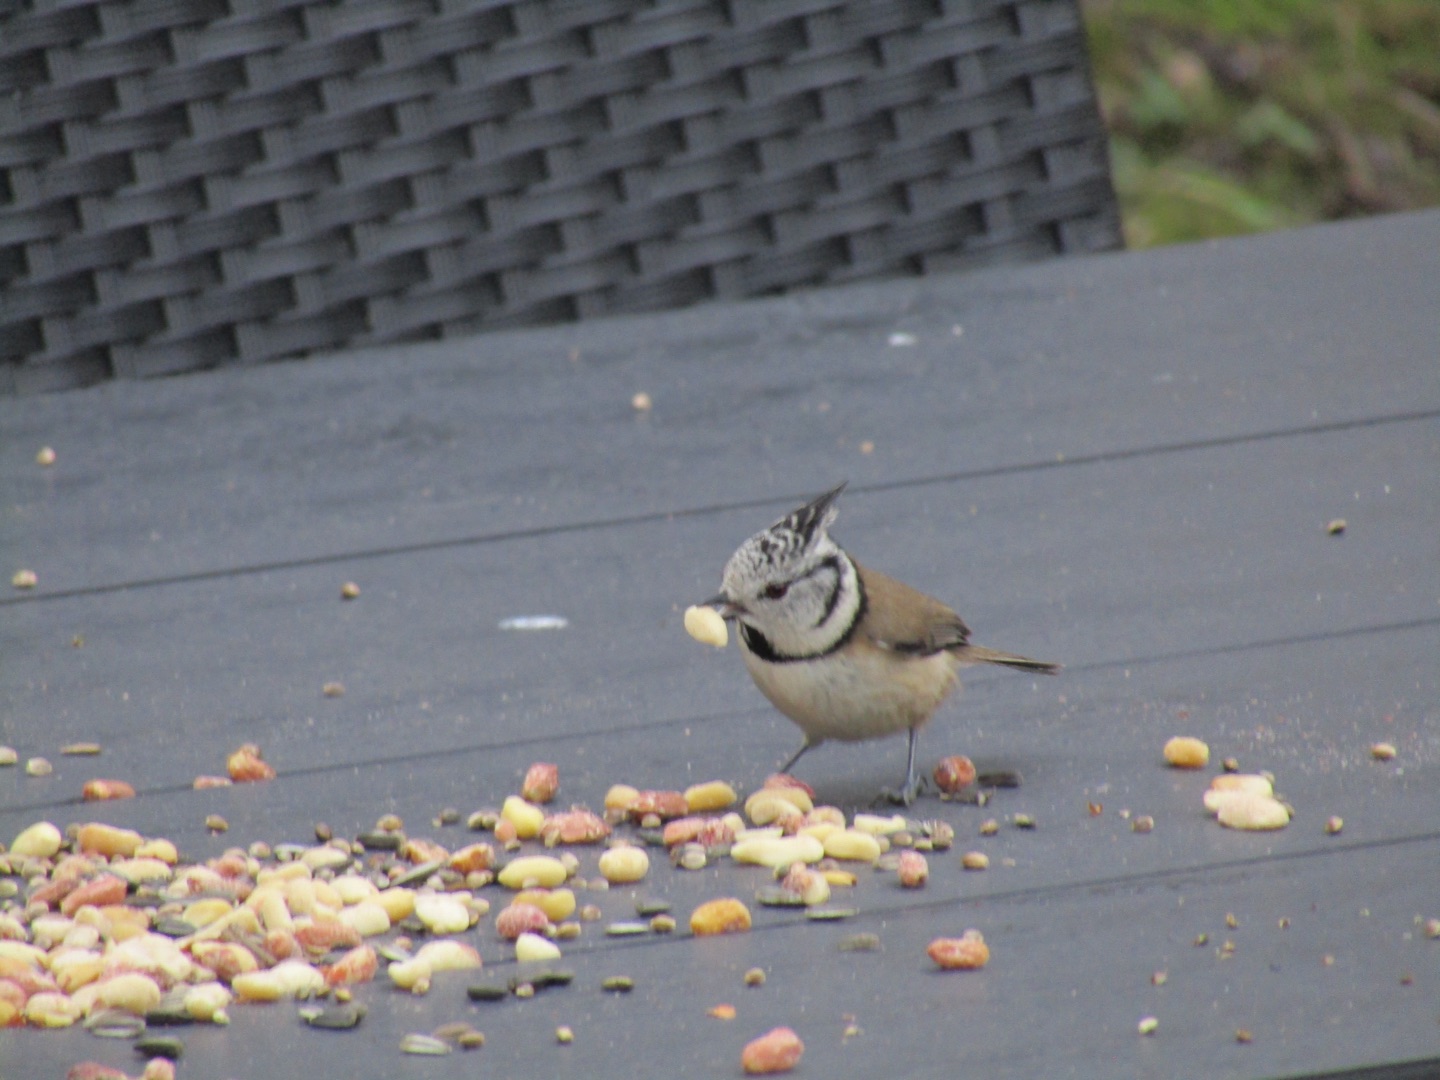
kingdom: Animalia
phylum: Chordata
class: Aves
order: Passeriformes
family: Paridae
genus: Lophophanes
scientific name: Lophophanes cristatus
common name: Topmejse
